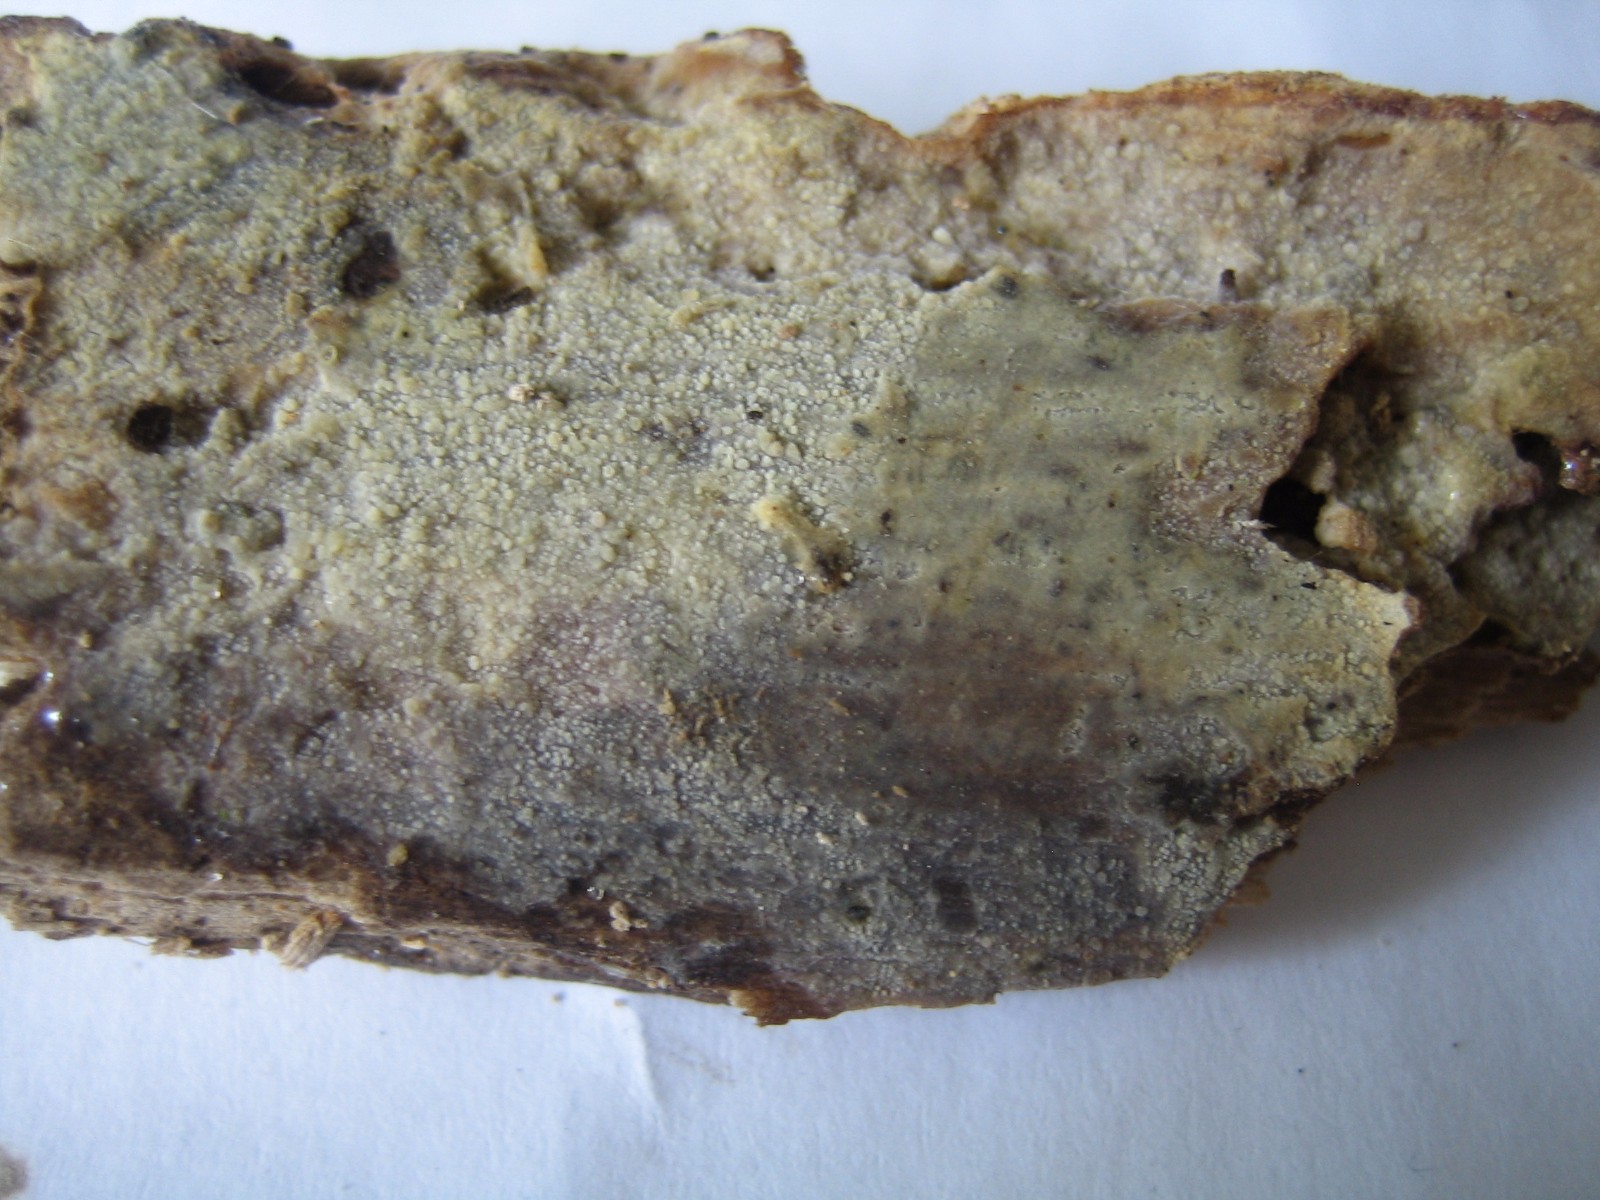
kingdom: Fungi
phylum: Basidiomycota
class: Agaricomycetes
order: Polyporales
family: Meruliaceae
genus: Scopuloides
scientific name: Scopuloides rimosa
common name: dughinde
